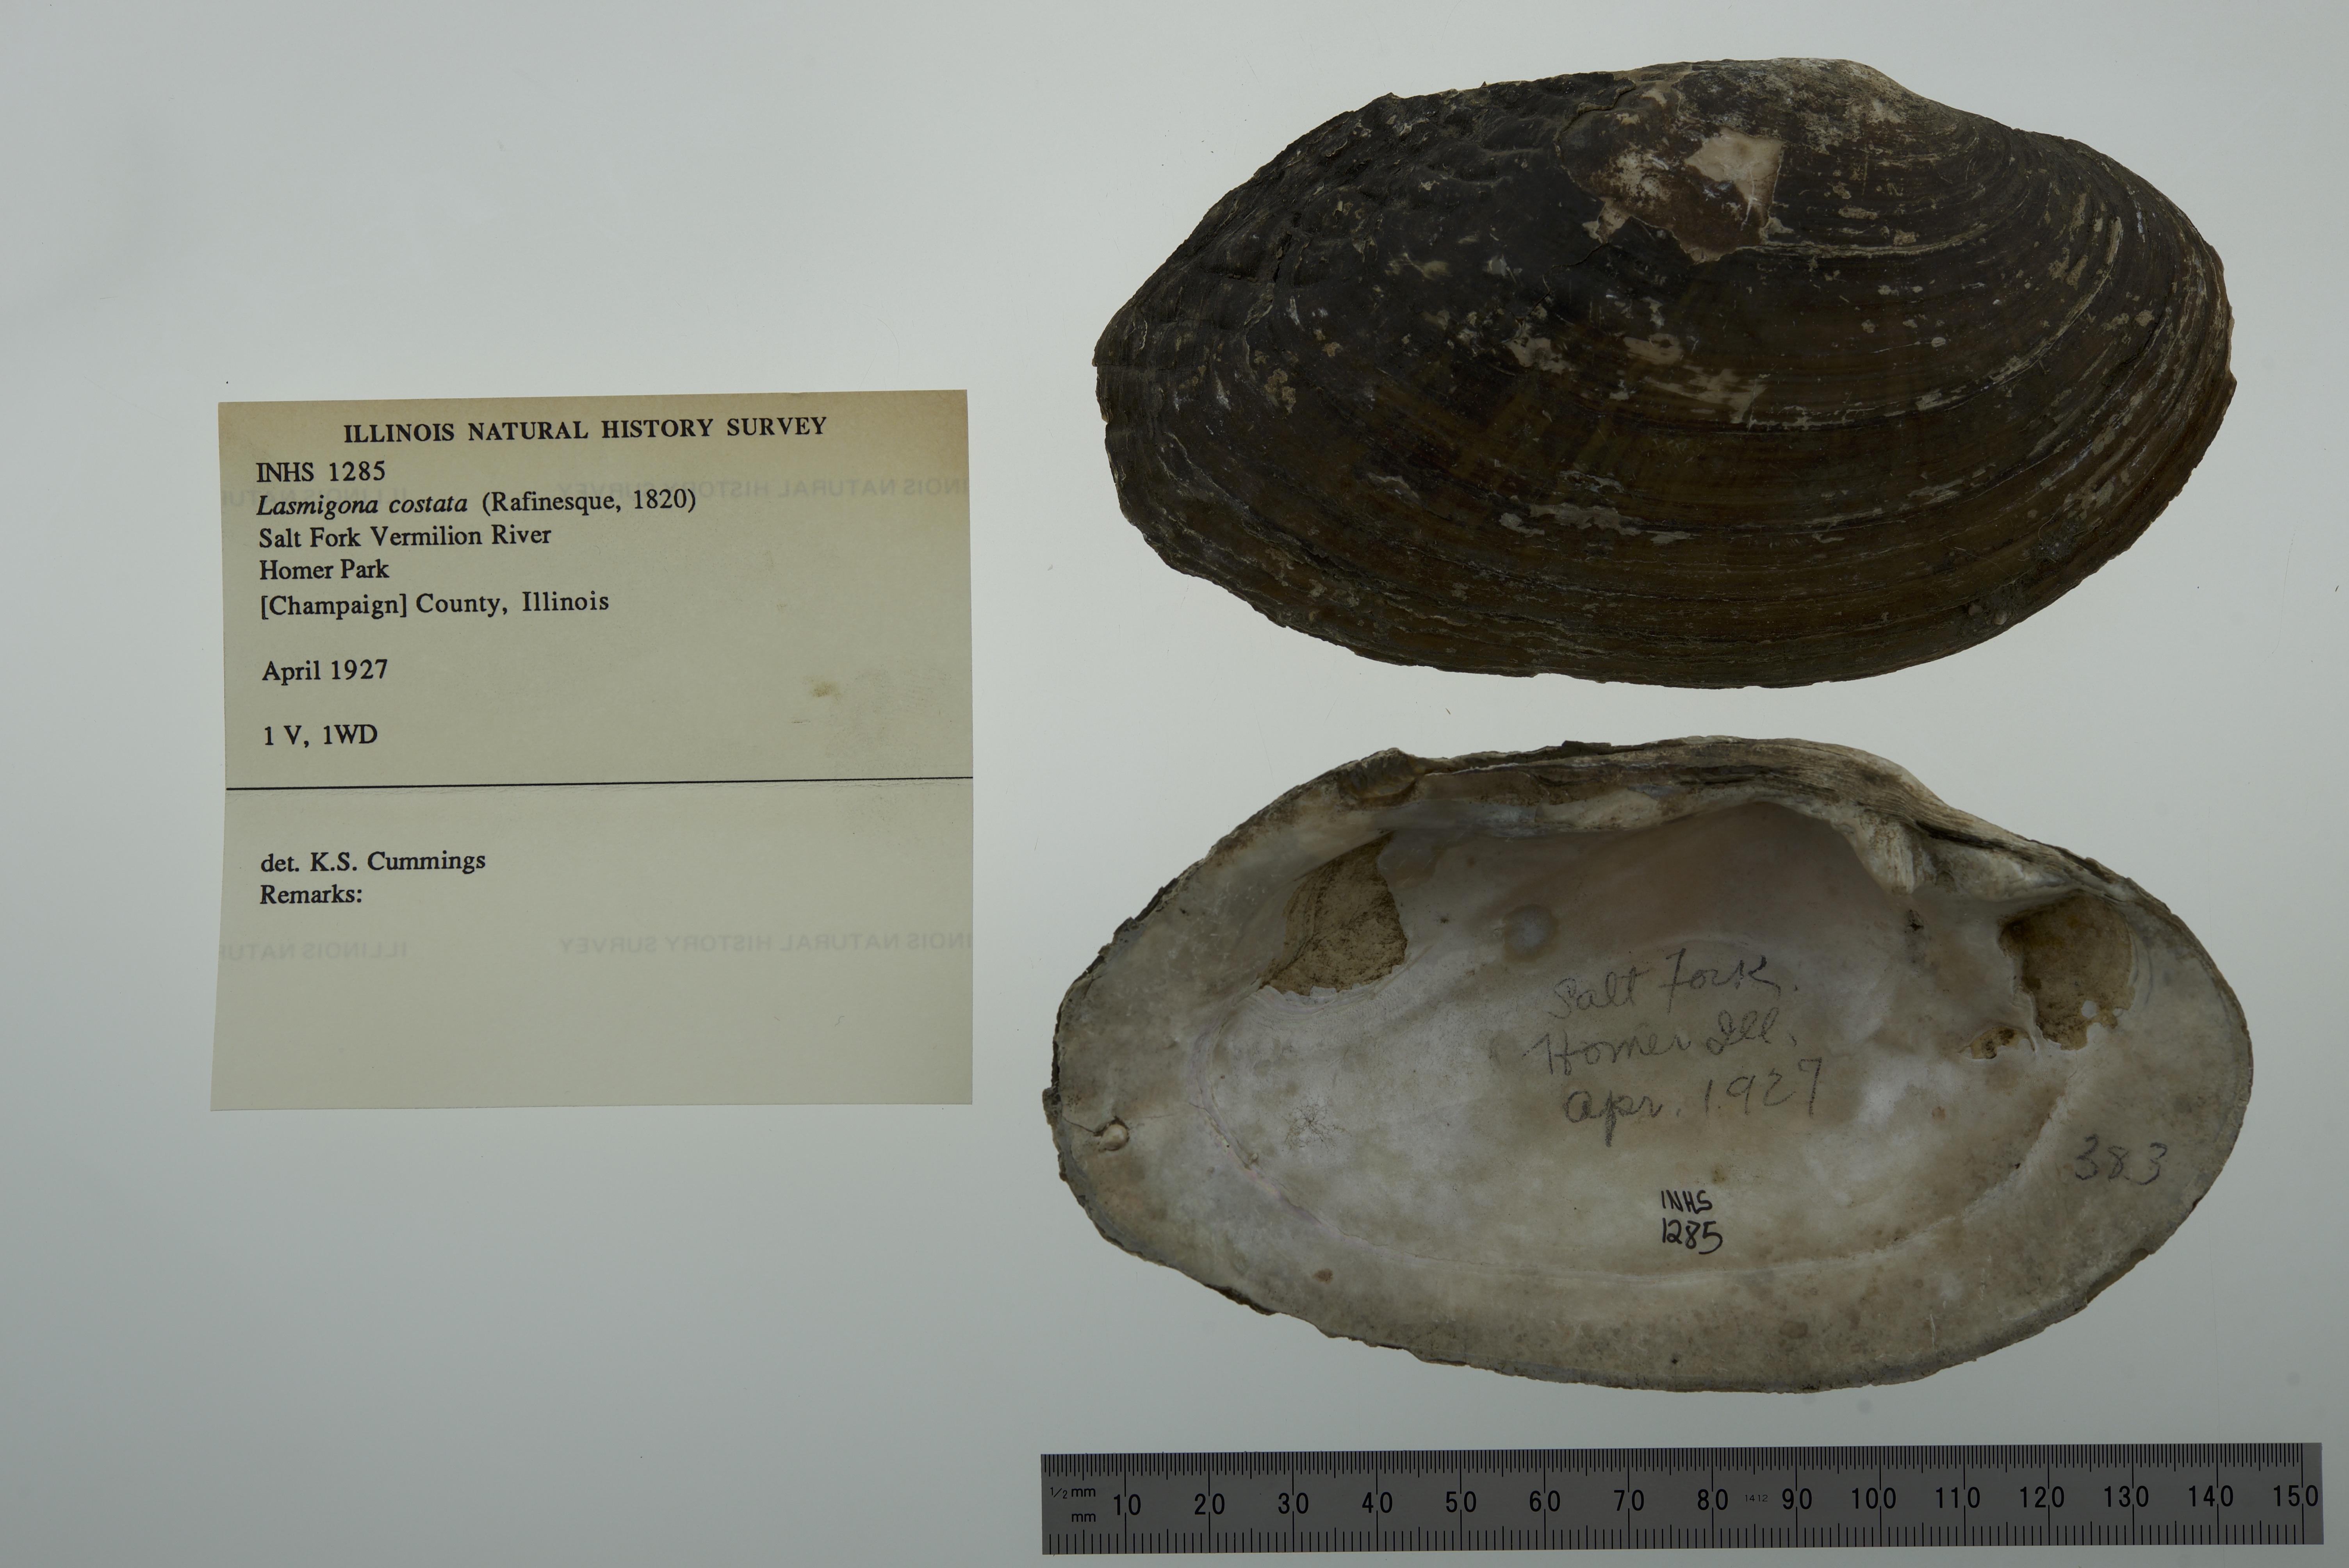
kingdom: Animalia
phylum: Mollusca
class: Bivalvia
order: Unionida
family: Unionidae
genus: Lasmigona
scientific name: Lasmigona costata
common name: Flutedshell
